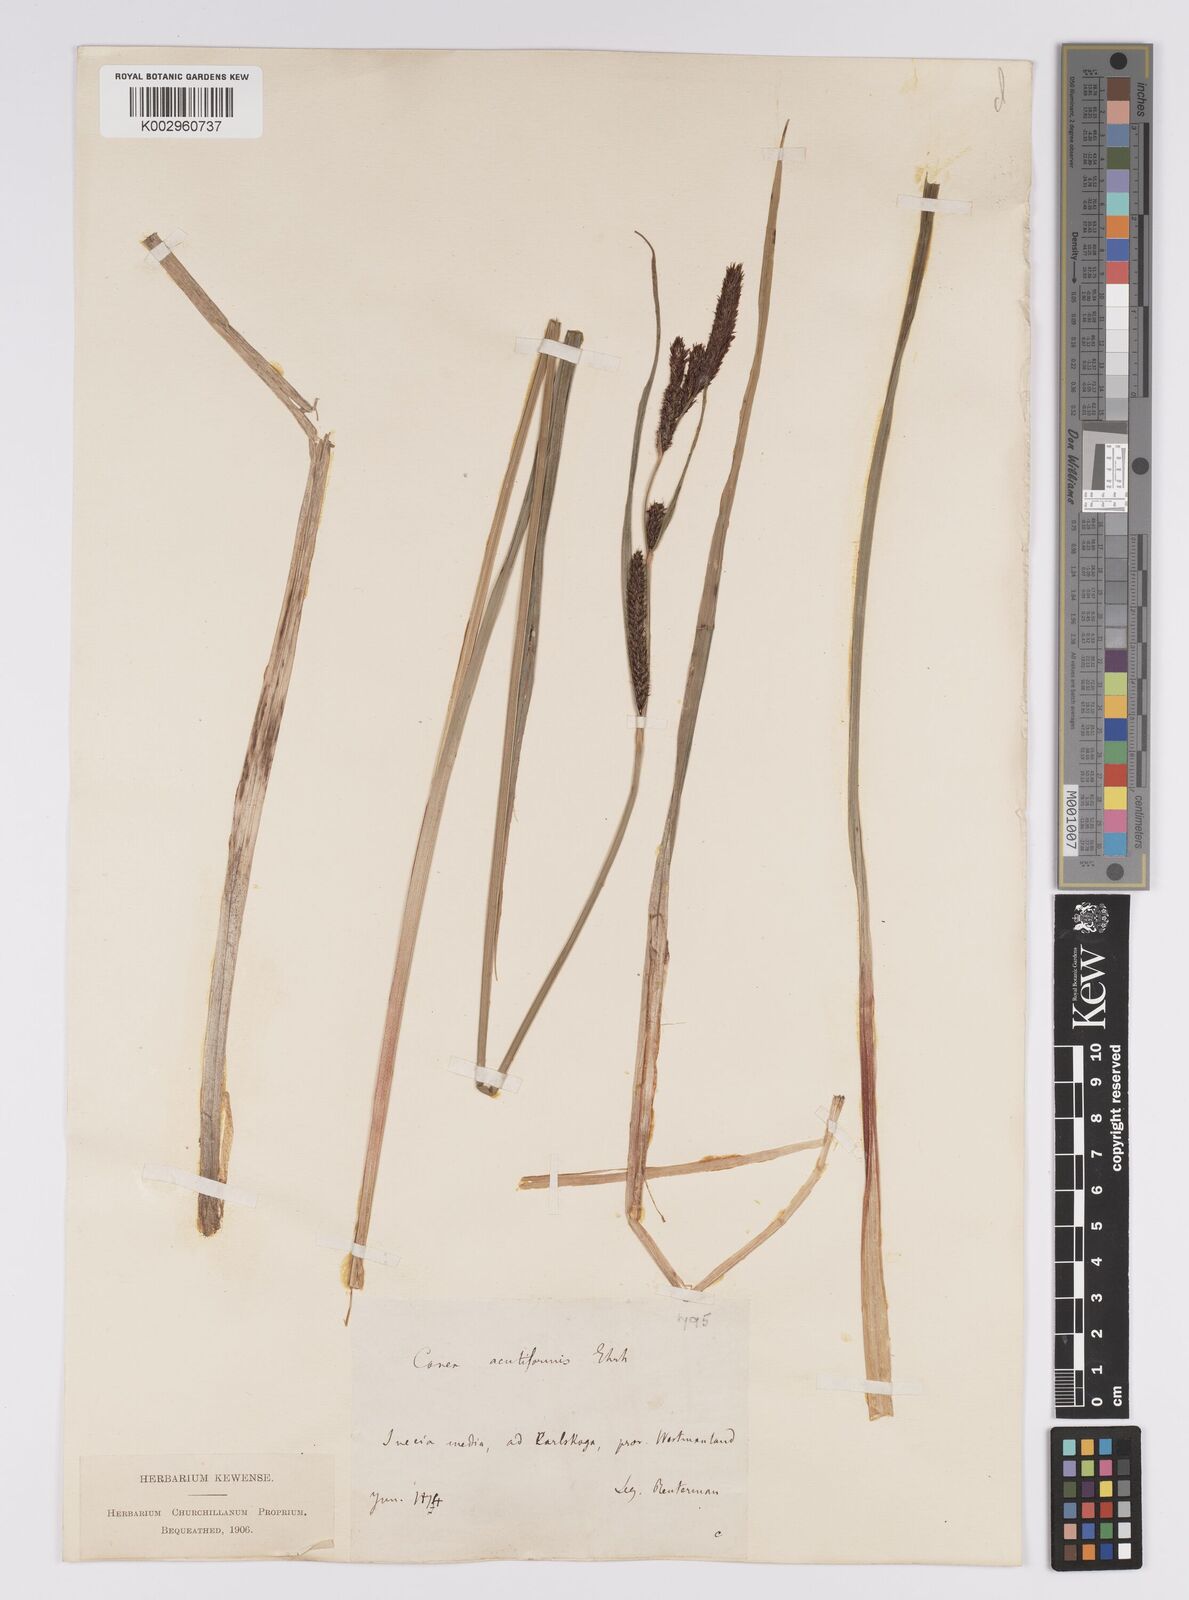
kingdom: Plantae
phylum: Tracheophyta
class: Liliopsida
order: Poales
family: Cyperaceae
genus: Carex
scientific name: Carex acutiformis
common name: Lesser pond-sedge
